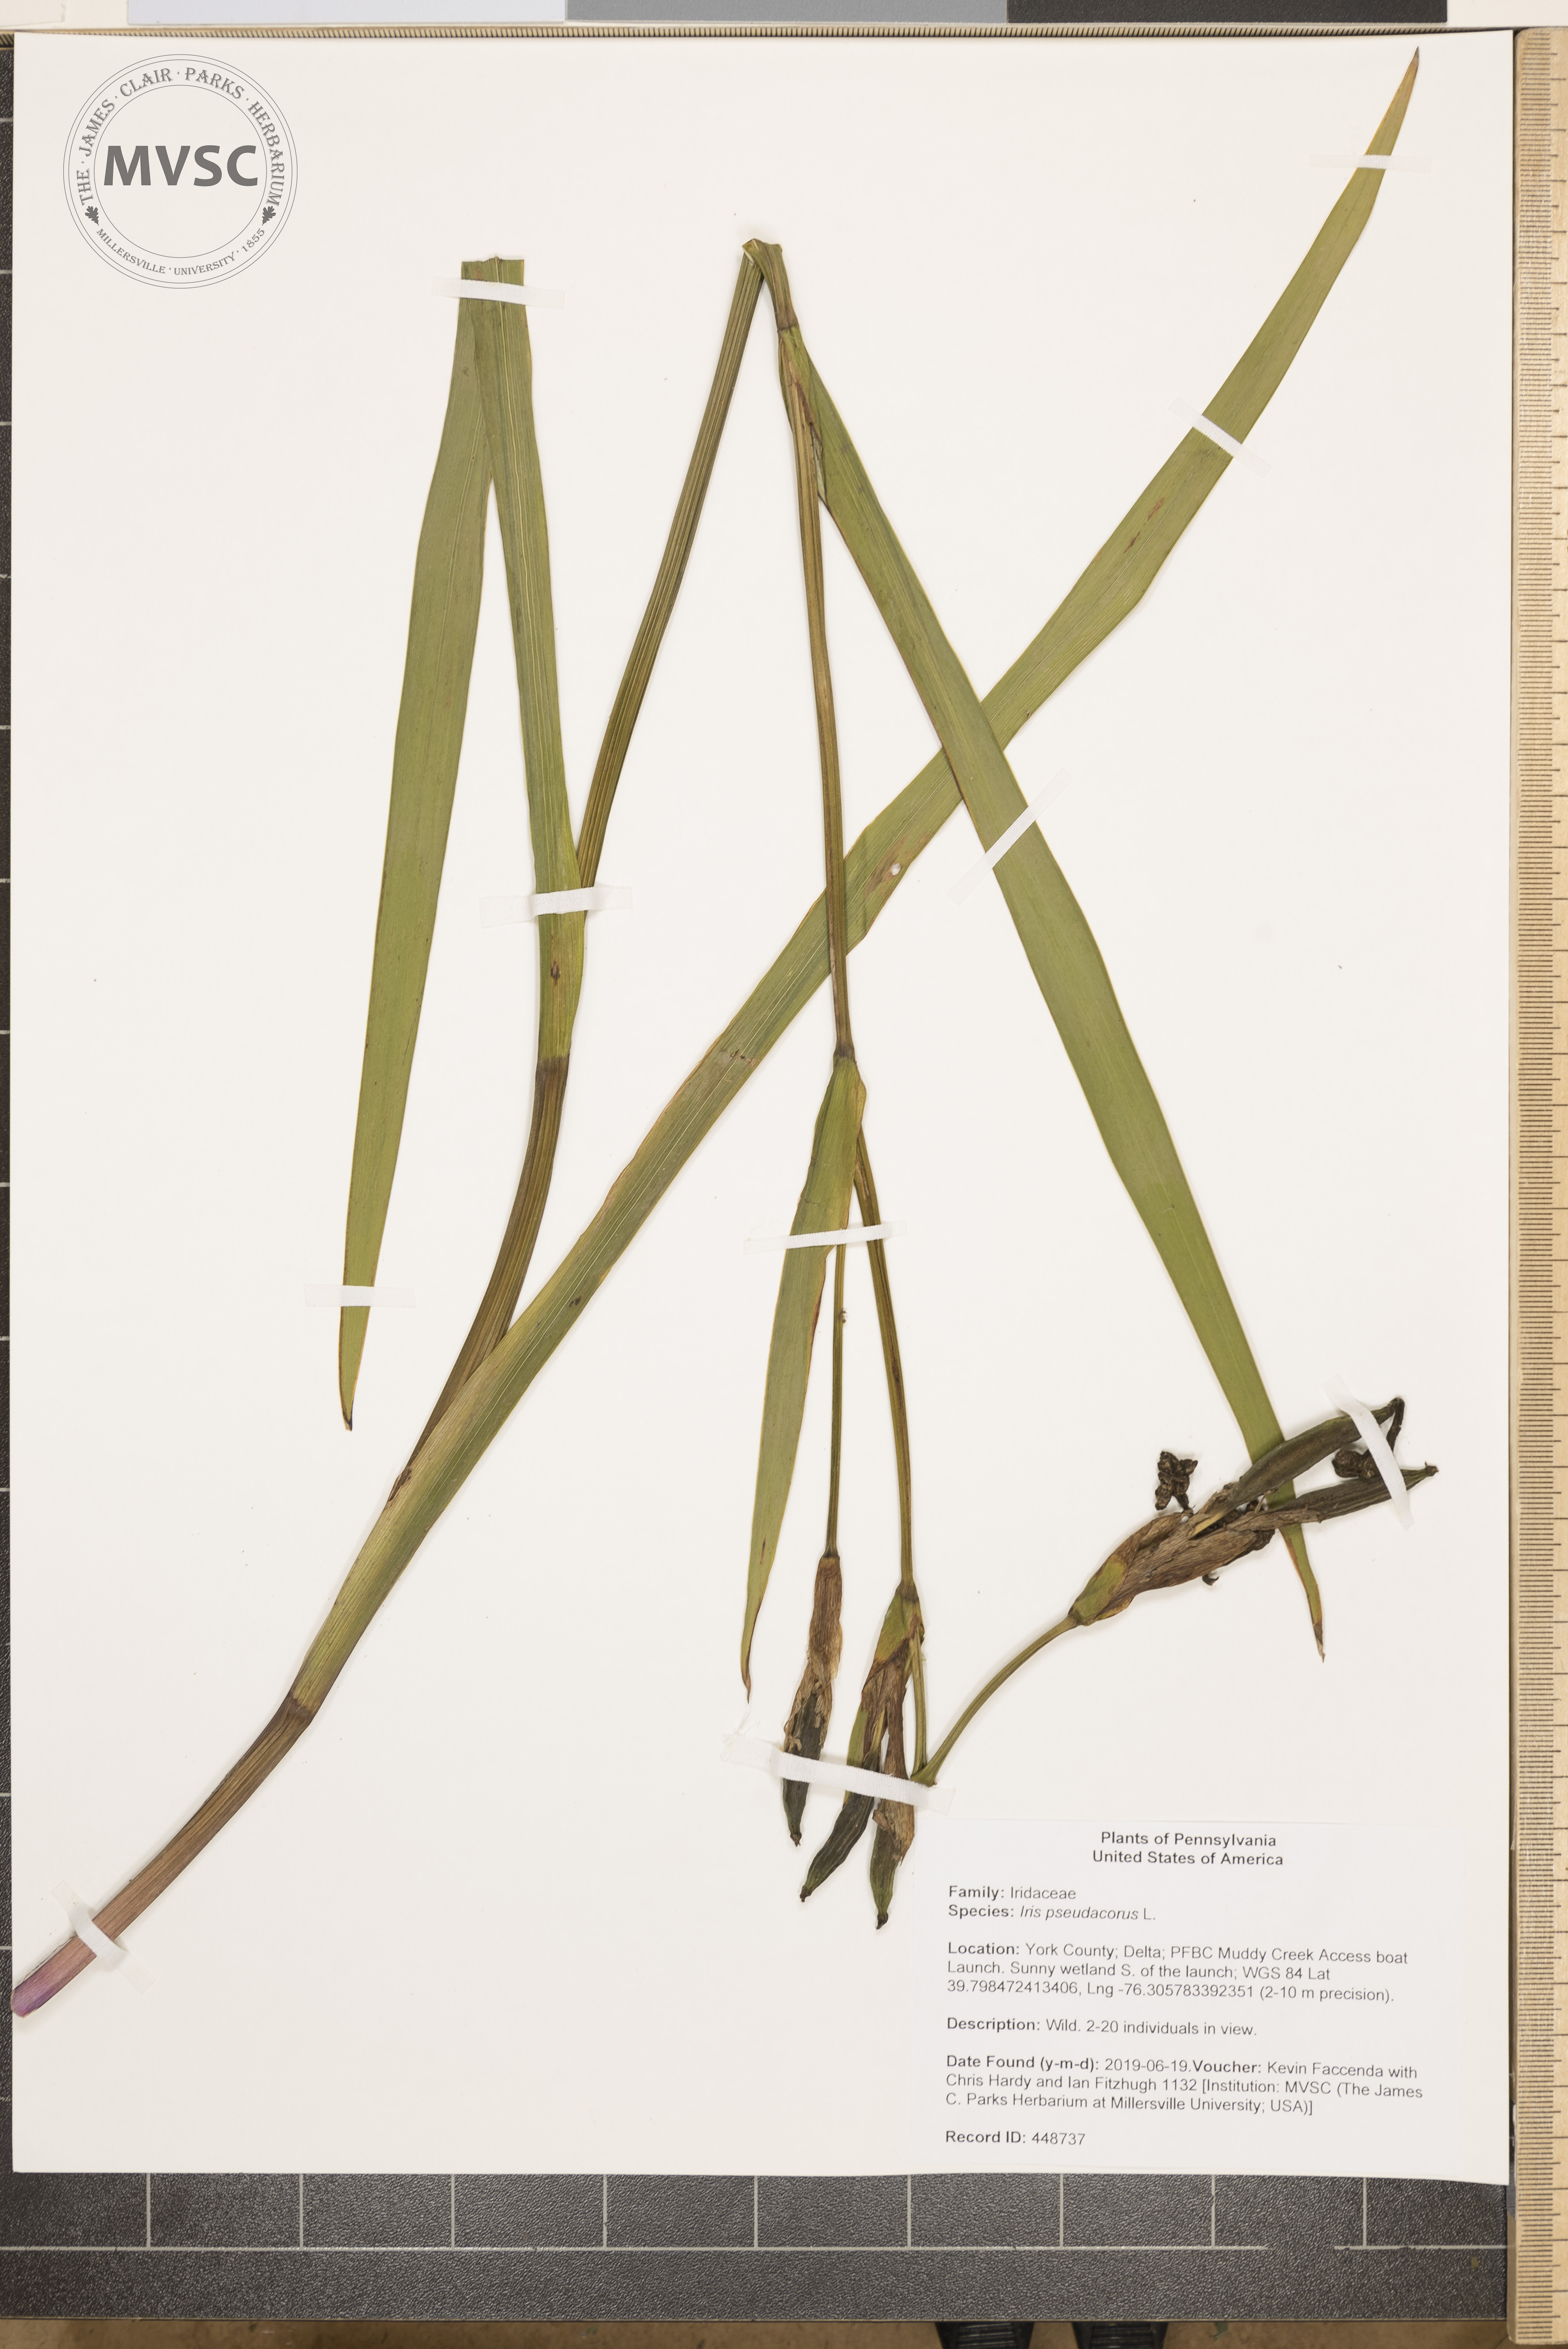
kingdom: Plantae
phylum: Tracheophyta
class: Liliopsida
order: Asparagales
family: Iridaceae
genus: Iris
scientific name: Iris pseudacorus
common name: Yellow flag
